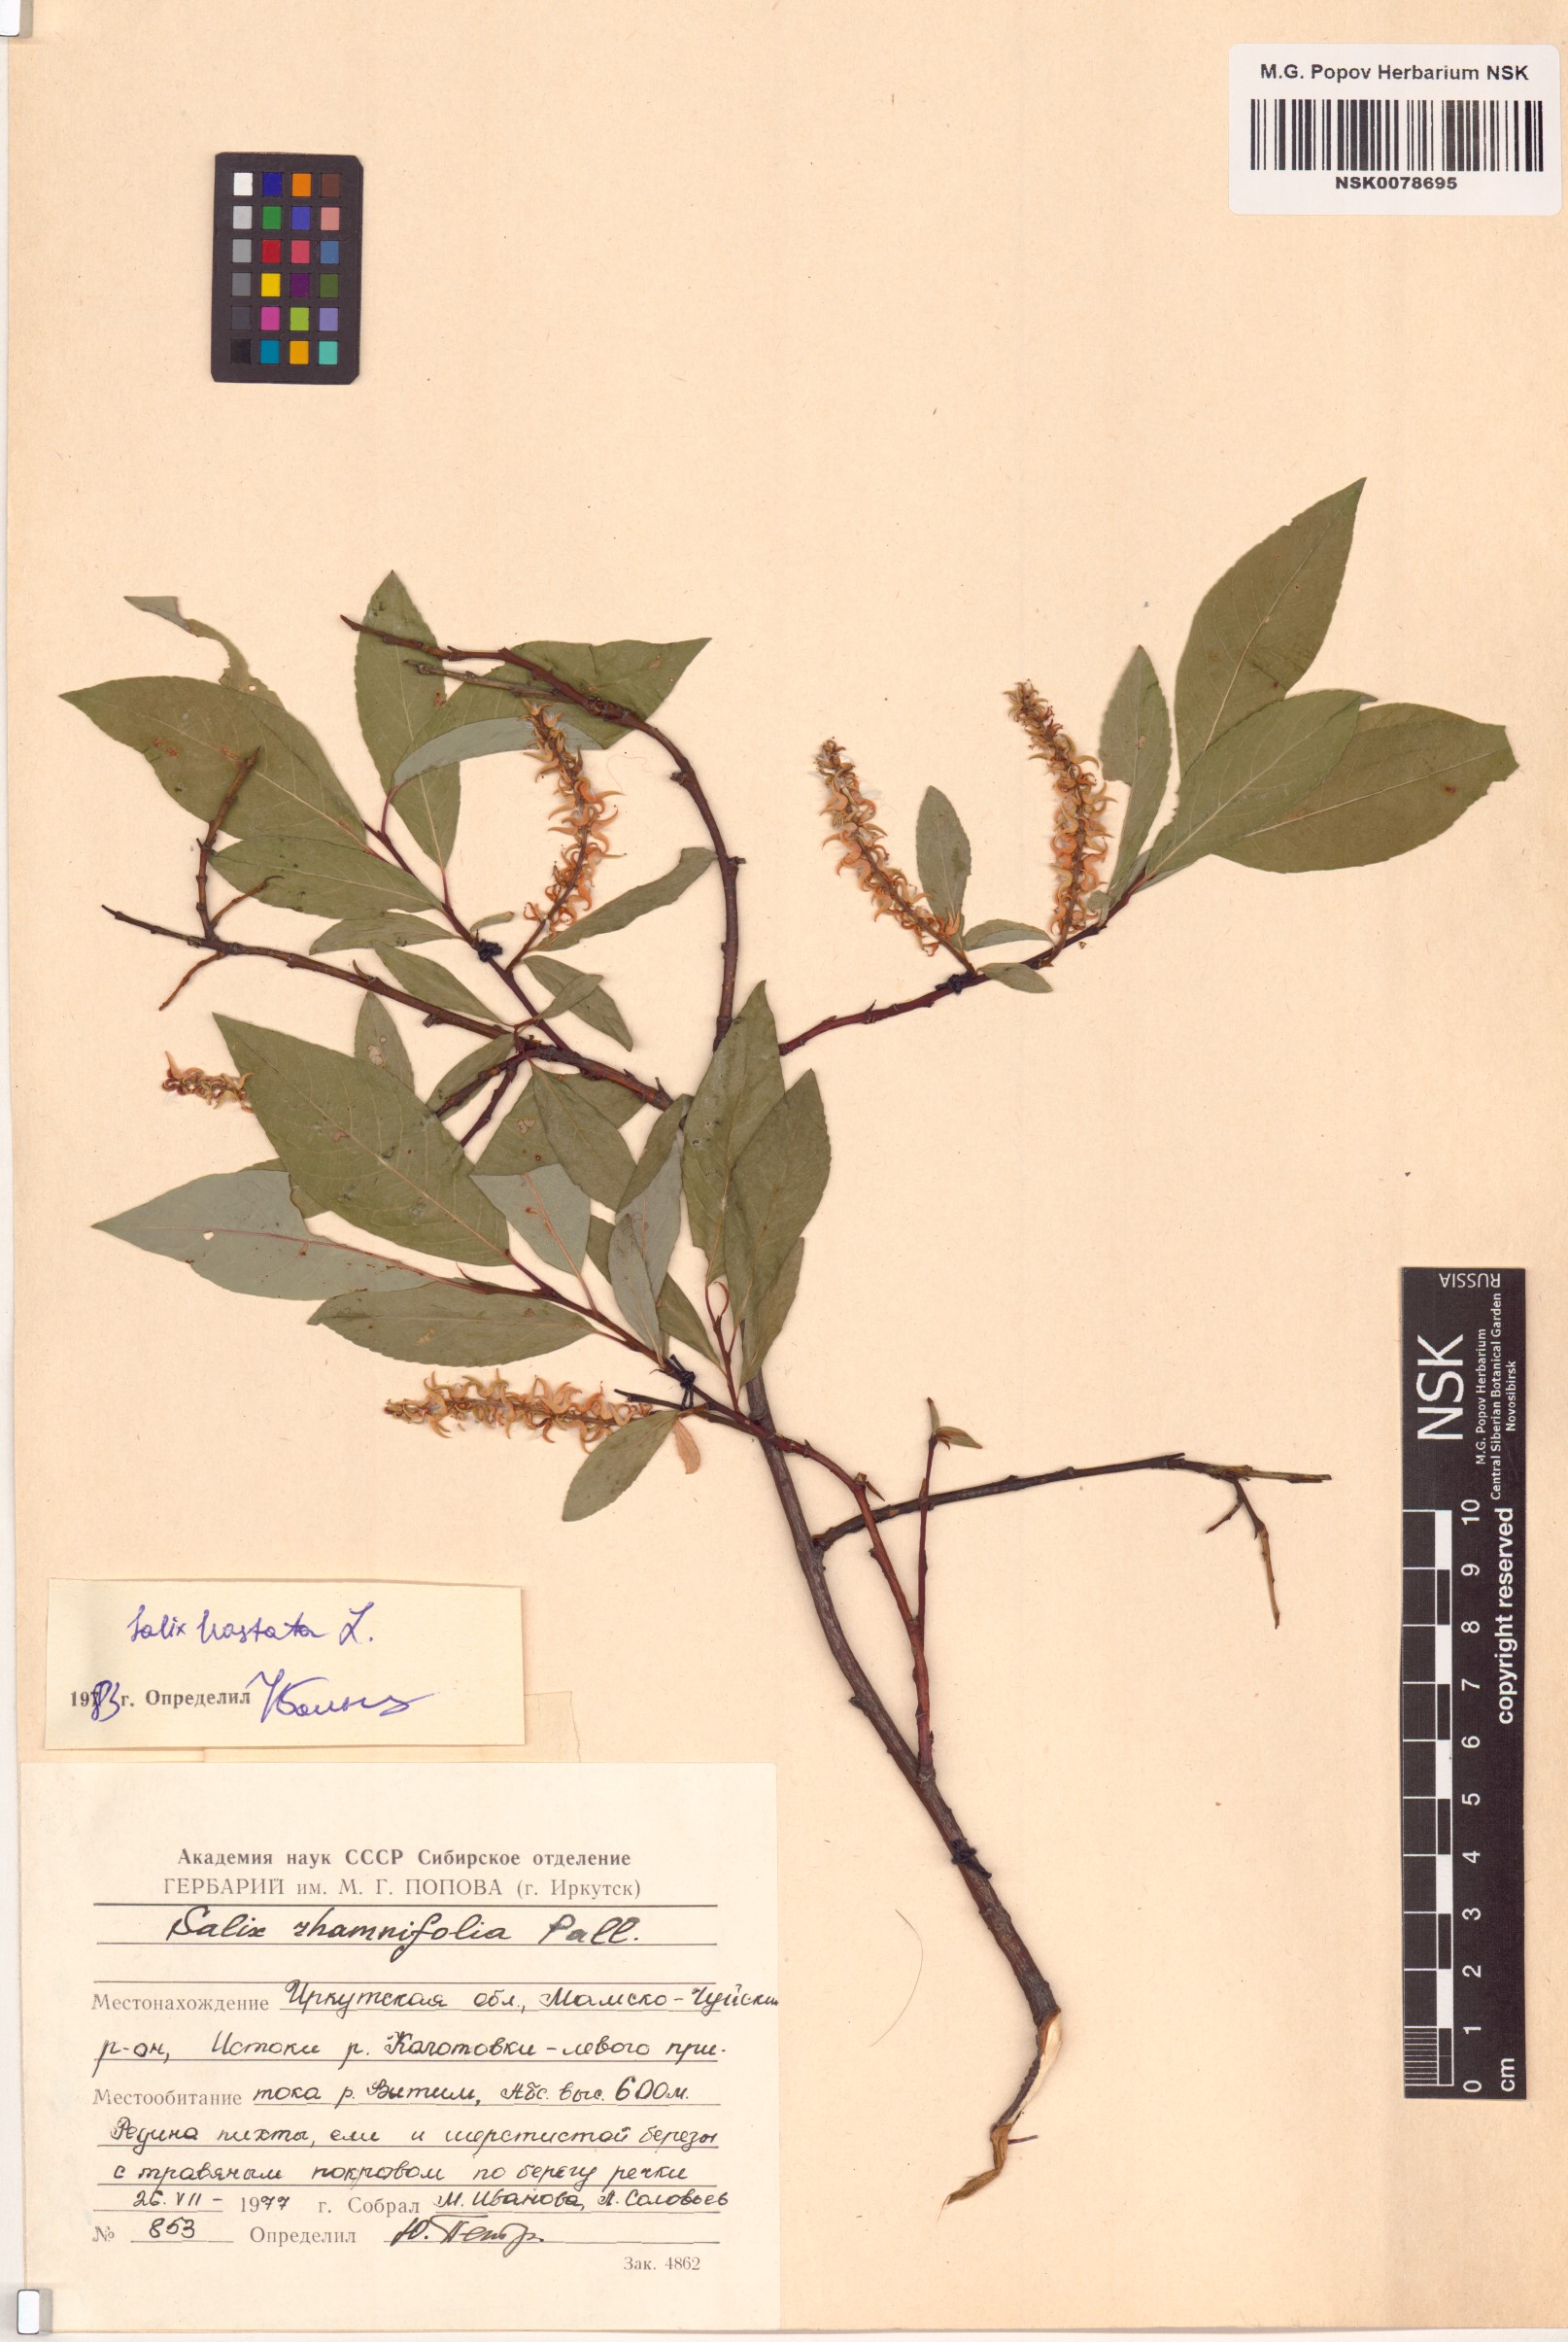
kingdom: Plantae
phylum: Tracheophyta
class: Magnoliopsida
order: Malpighiales
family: Salicaceae
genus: Salix
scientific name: Salix hastata
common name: Halberd willow
